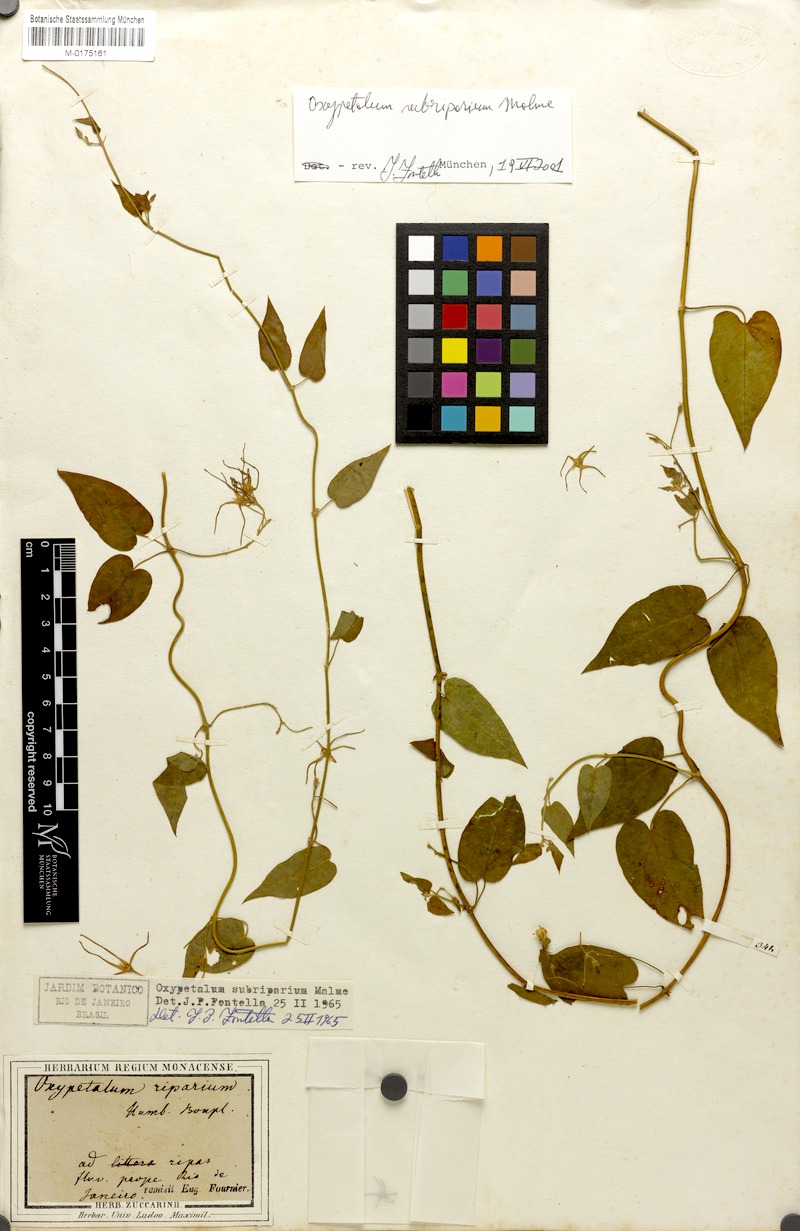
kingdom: Plantae
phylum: Tracheophyta
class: Magnoliopsida
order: Gentianales
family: Apocynaceae
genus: Oxypetalum
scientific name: Oxypetalum cordifolium
